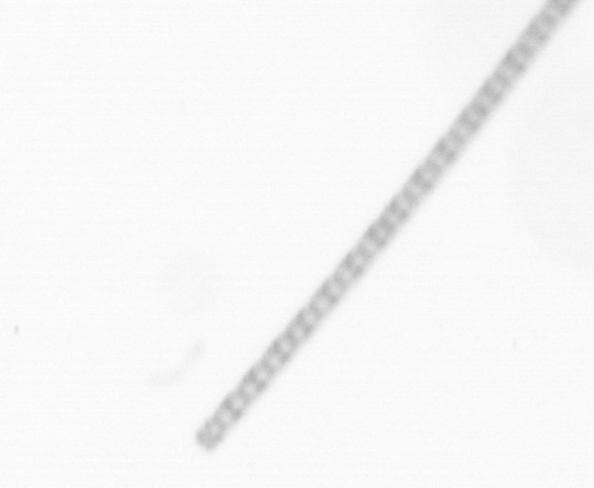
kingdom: Chromista
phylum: Ochrophyta
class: Bacillariophyceae
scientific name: Bacillariophyceae
